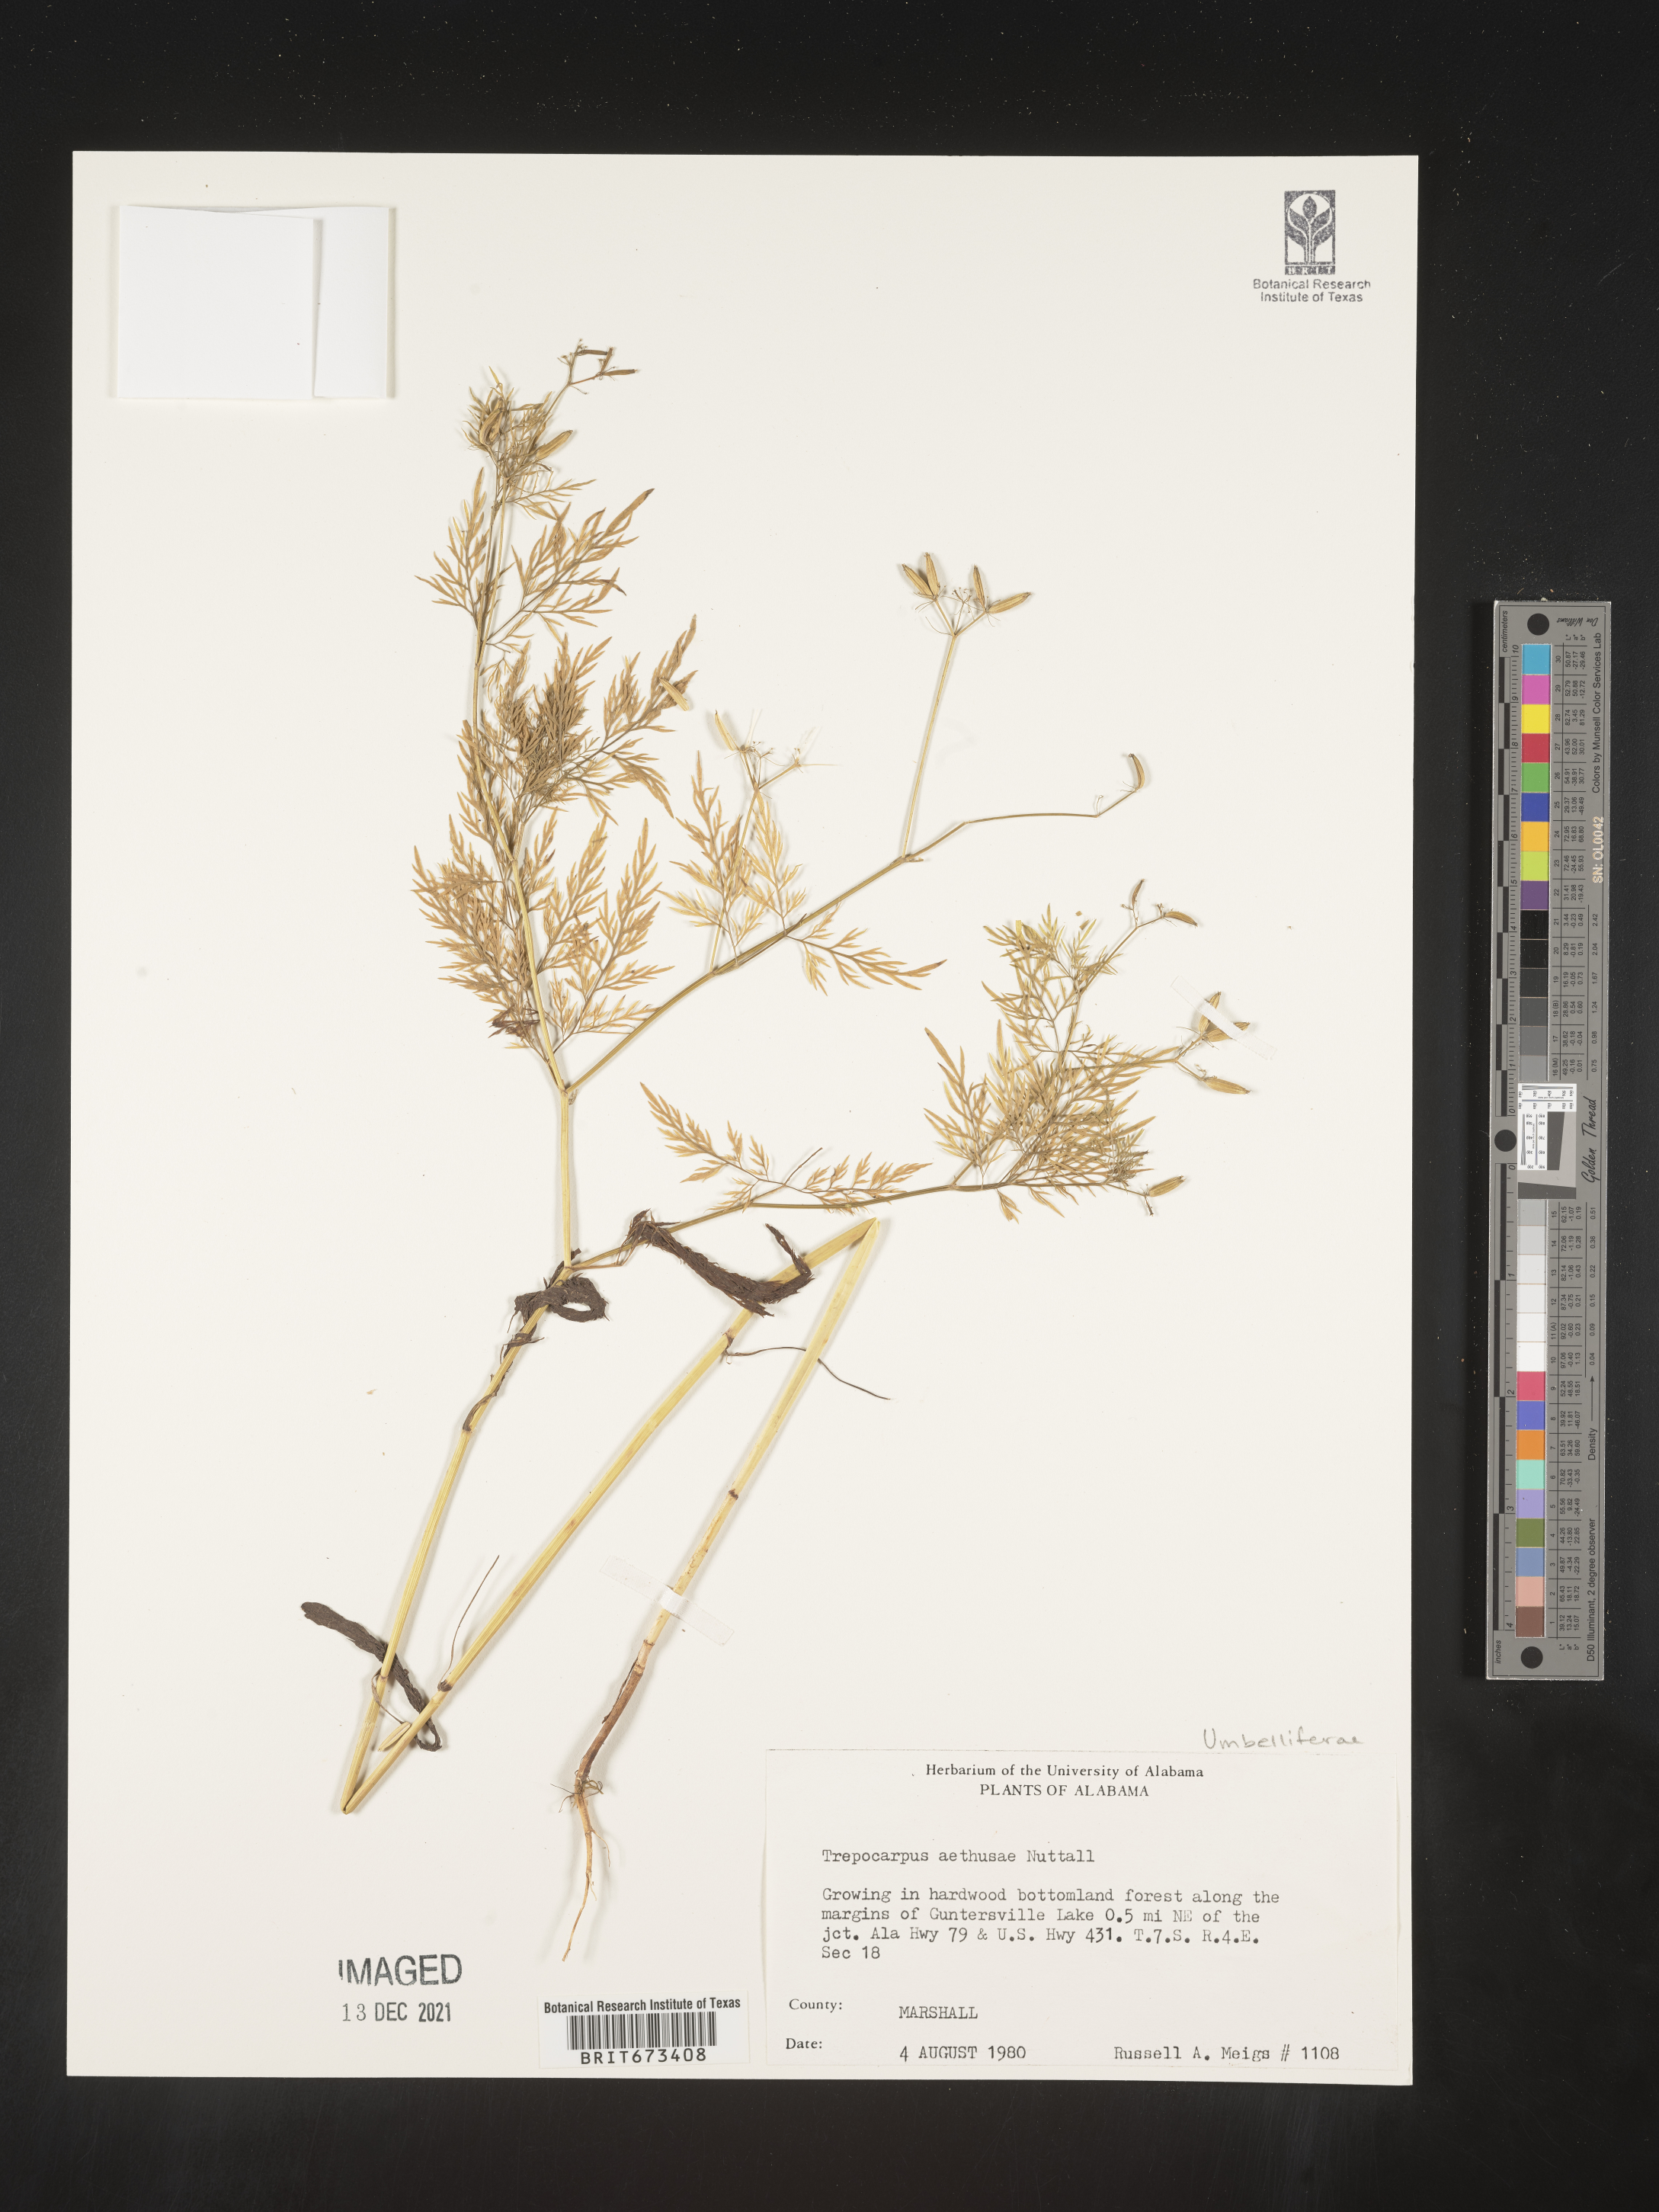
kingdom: Plantae
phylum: Tracheophyta
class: Magnoliopsida
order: Apiales
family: Apiaceae
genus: Trepocarpus
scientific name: Trepocarpus aethusae
